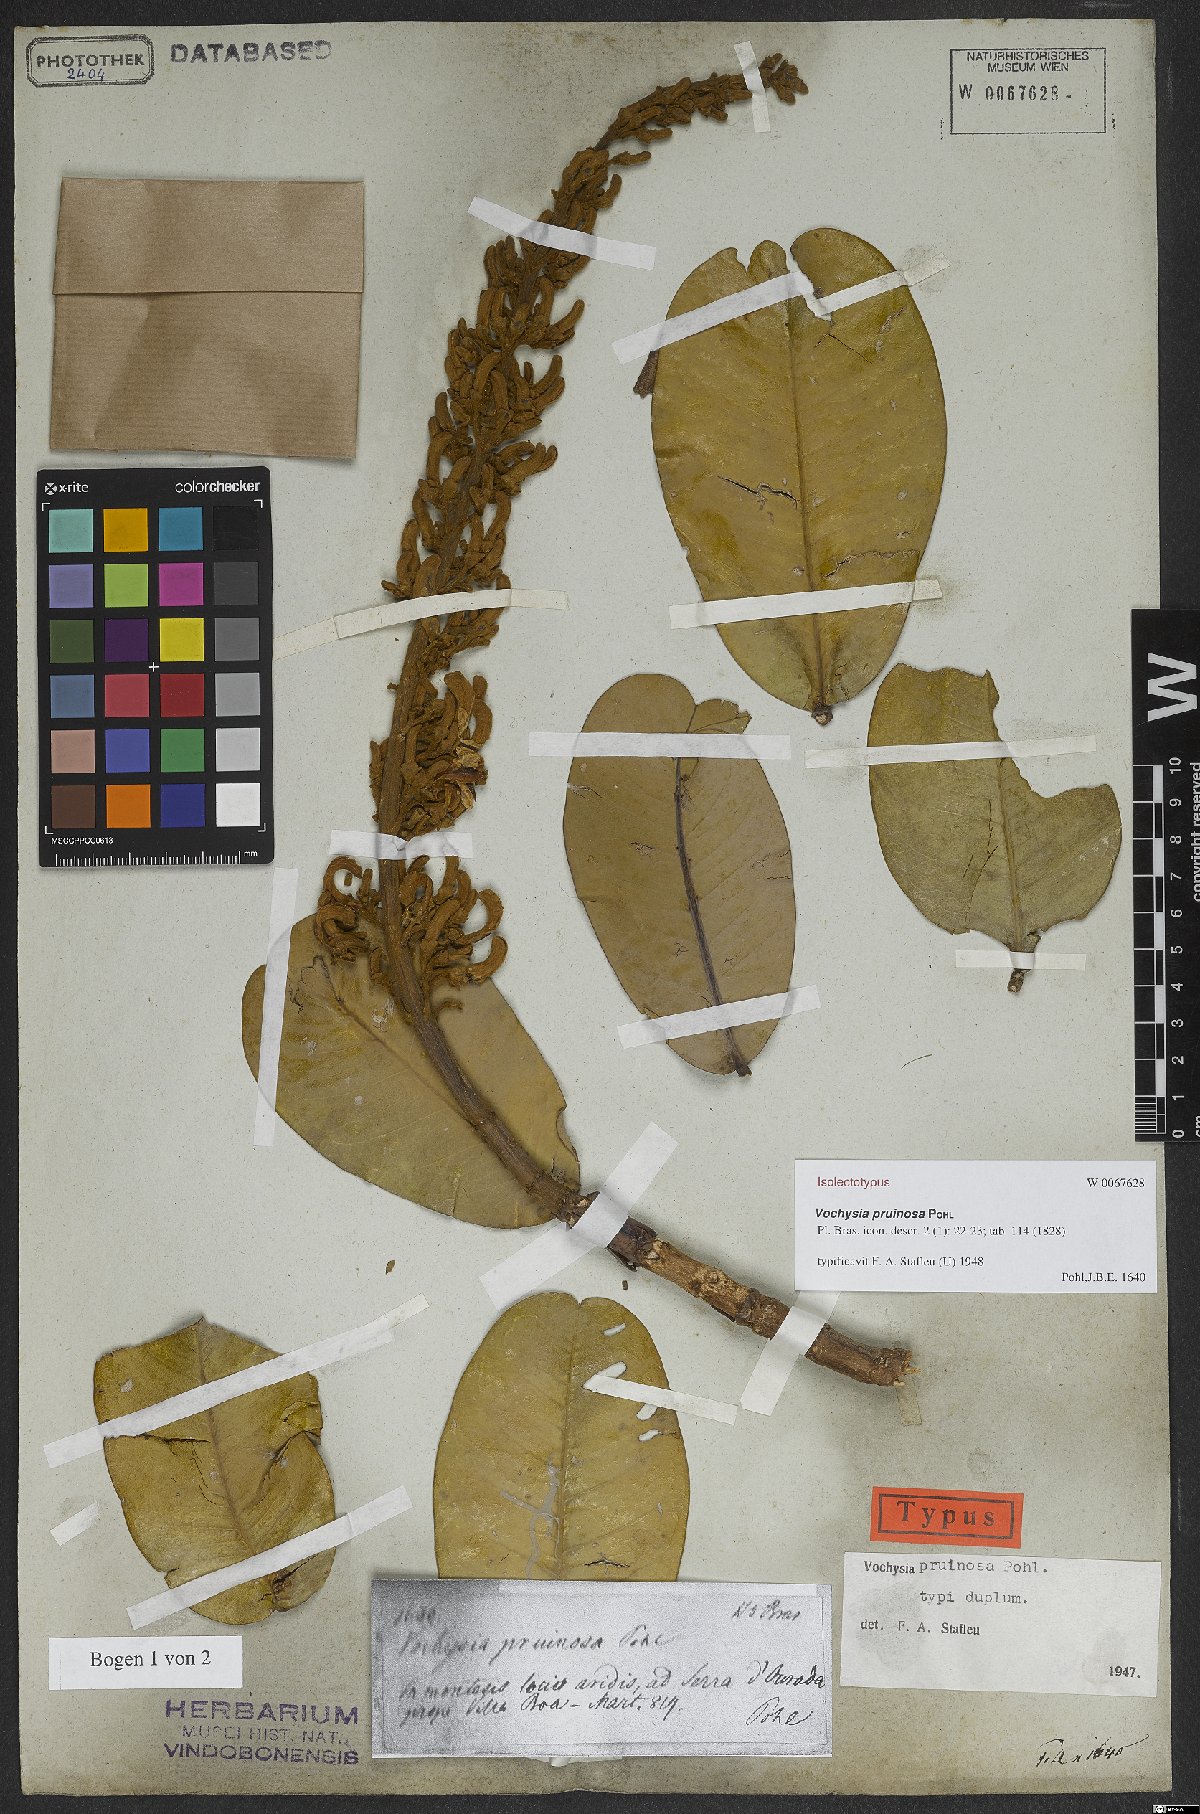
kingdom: Plantae
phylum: Tracheophyta
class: Magnoliopsida
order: Myrtales
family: Vochysiaceae
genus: Vochysia
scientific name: Vochysia pruinosa
